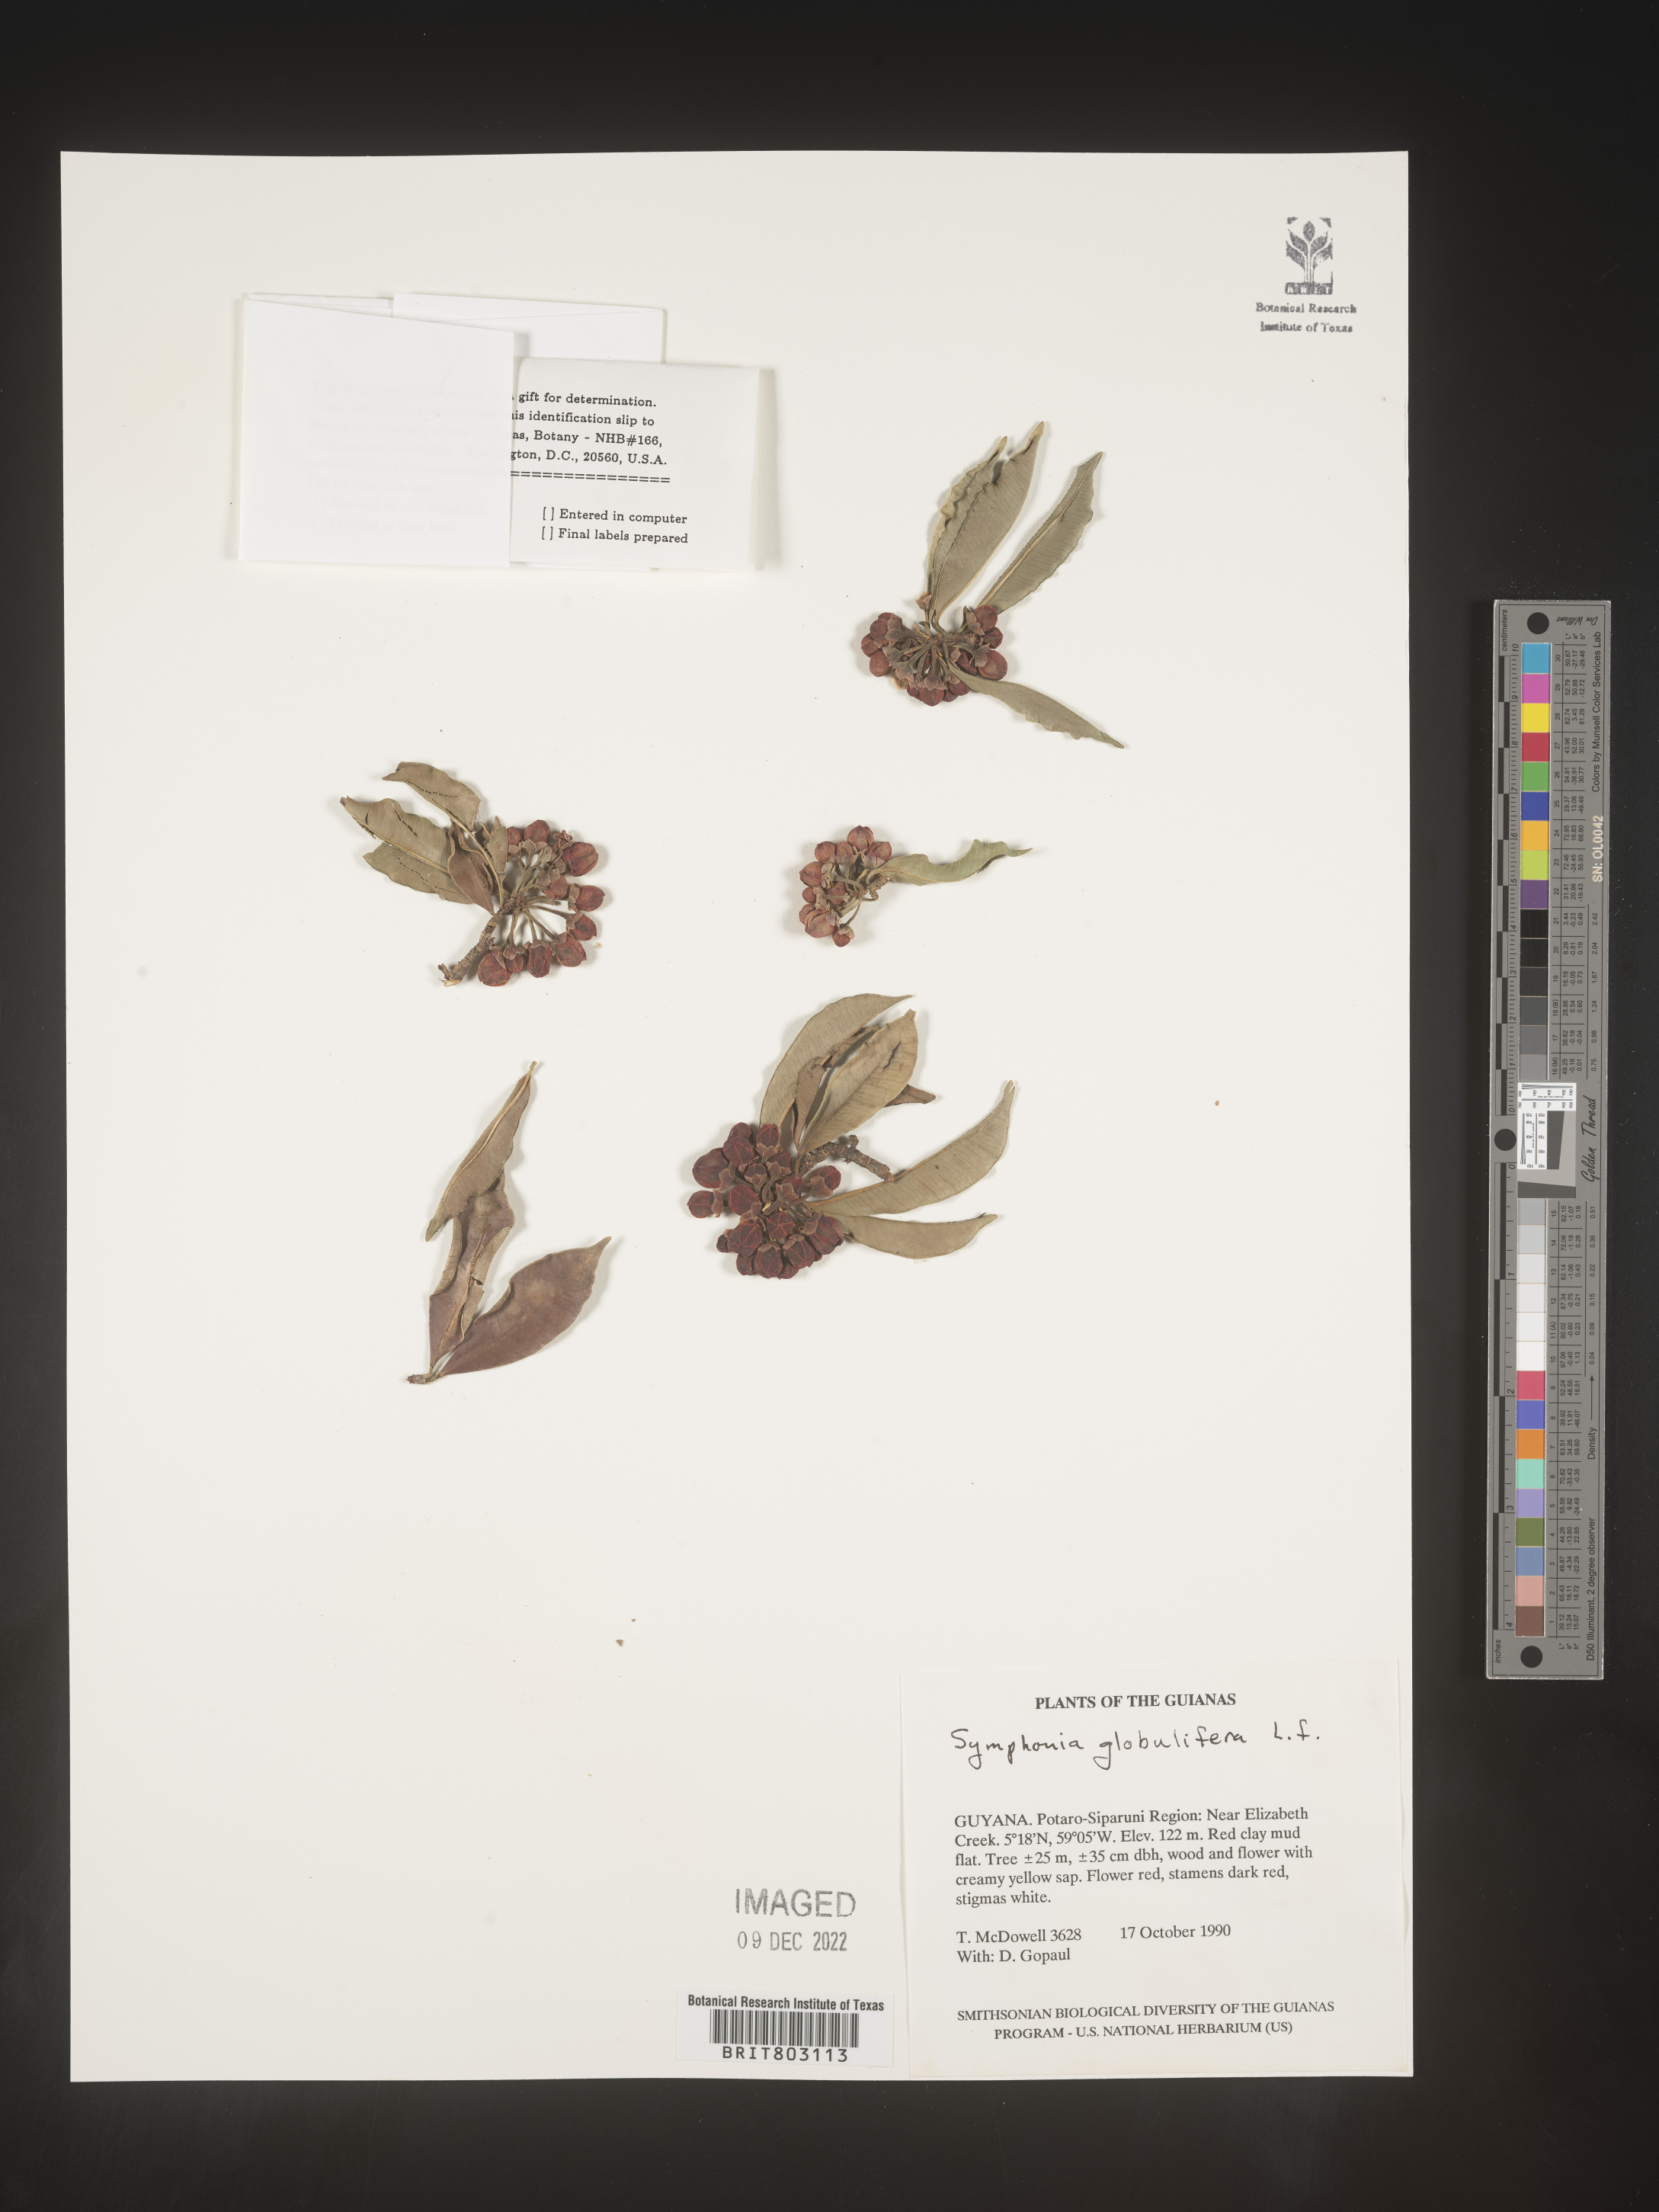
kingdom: Plantae
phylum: Tracheophyta
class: Magnoliopsida
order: Malpighiales
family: Clusiaceae
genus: Symphonia
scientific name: Symphonia
